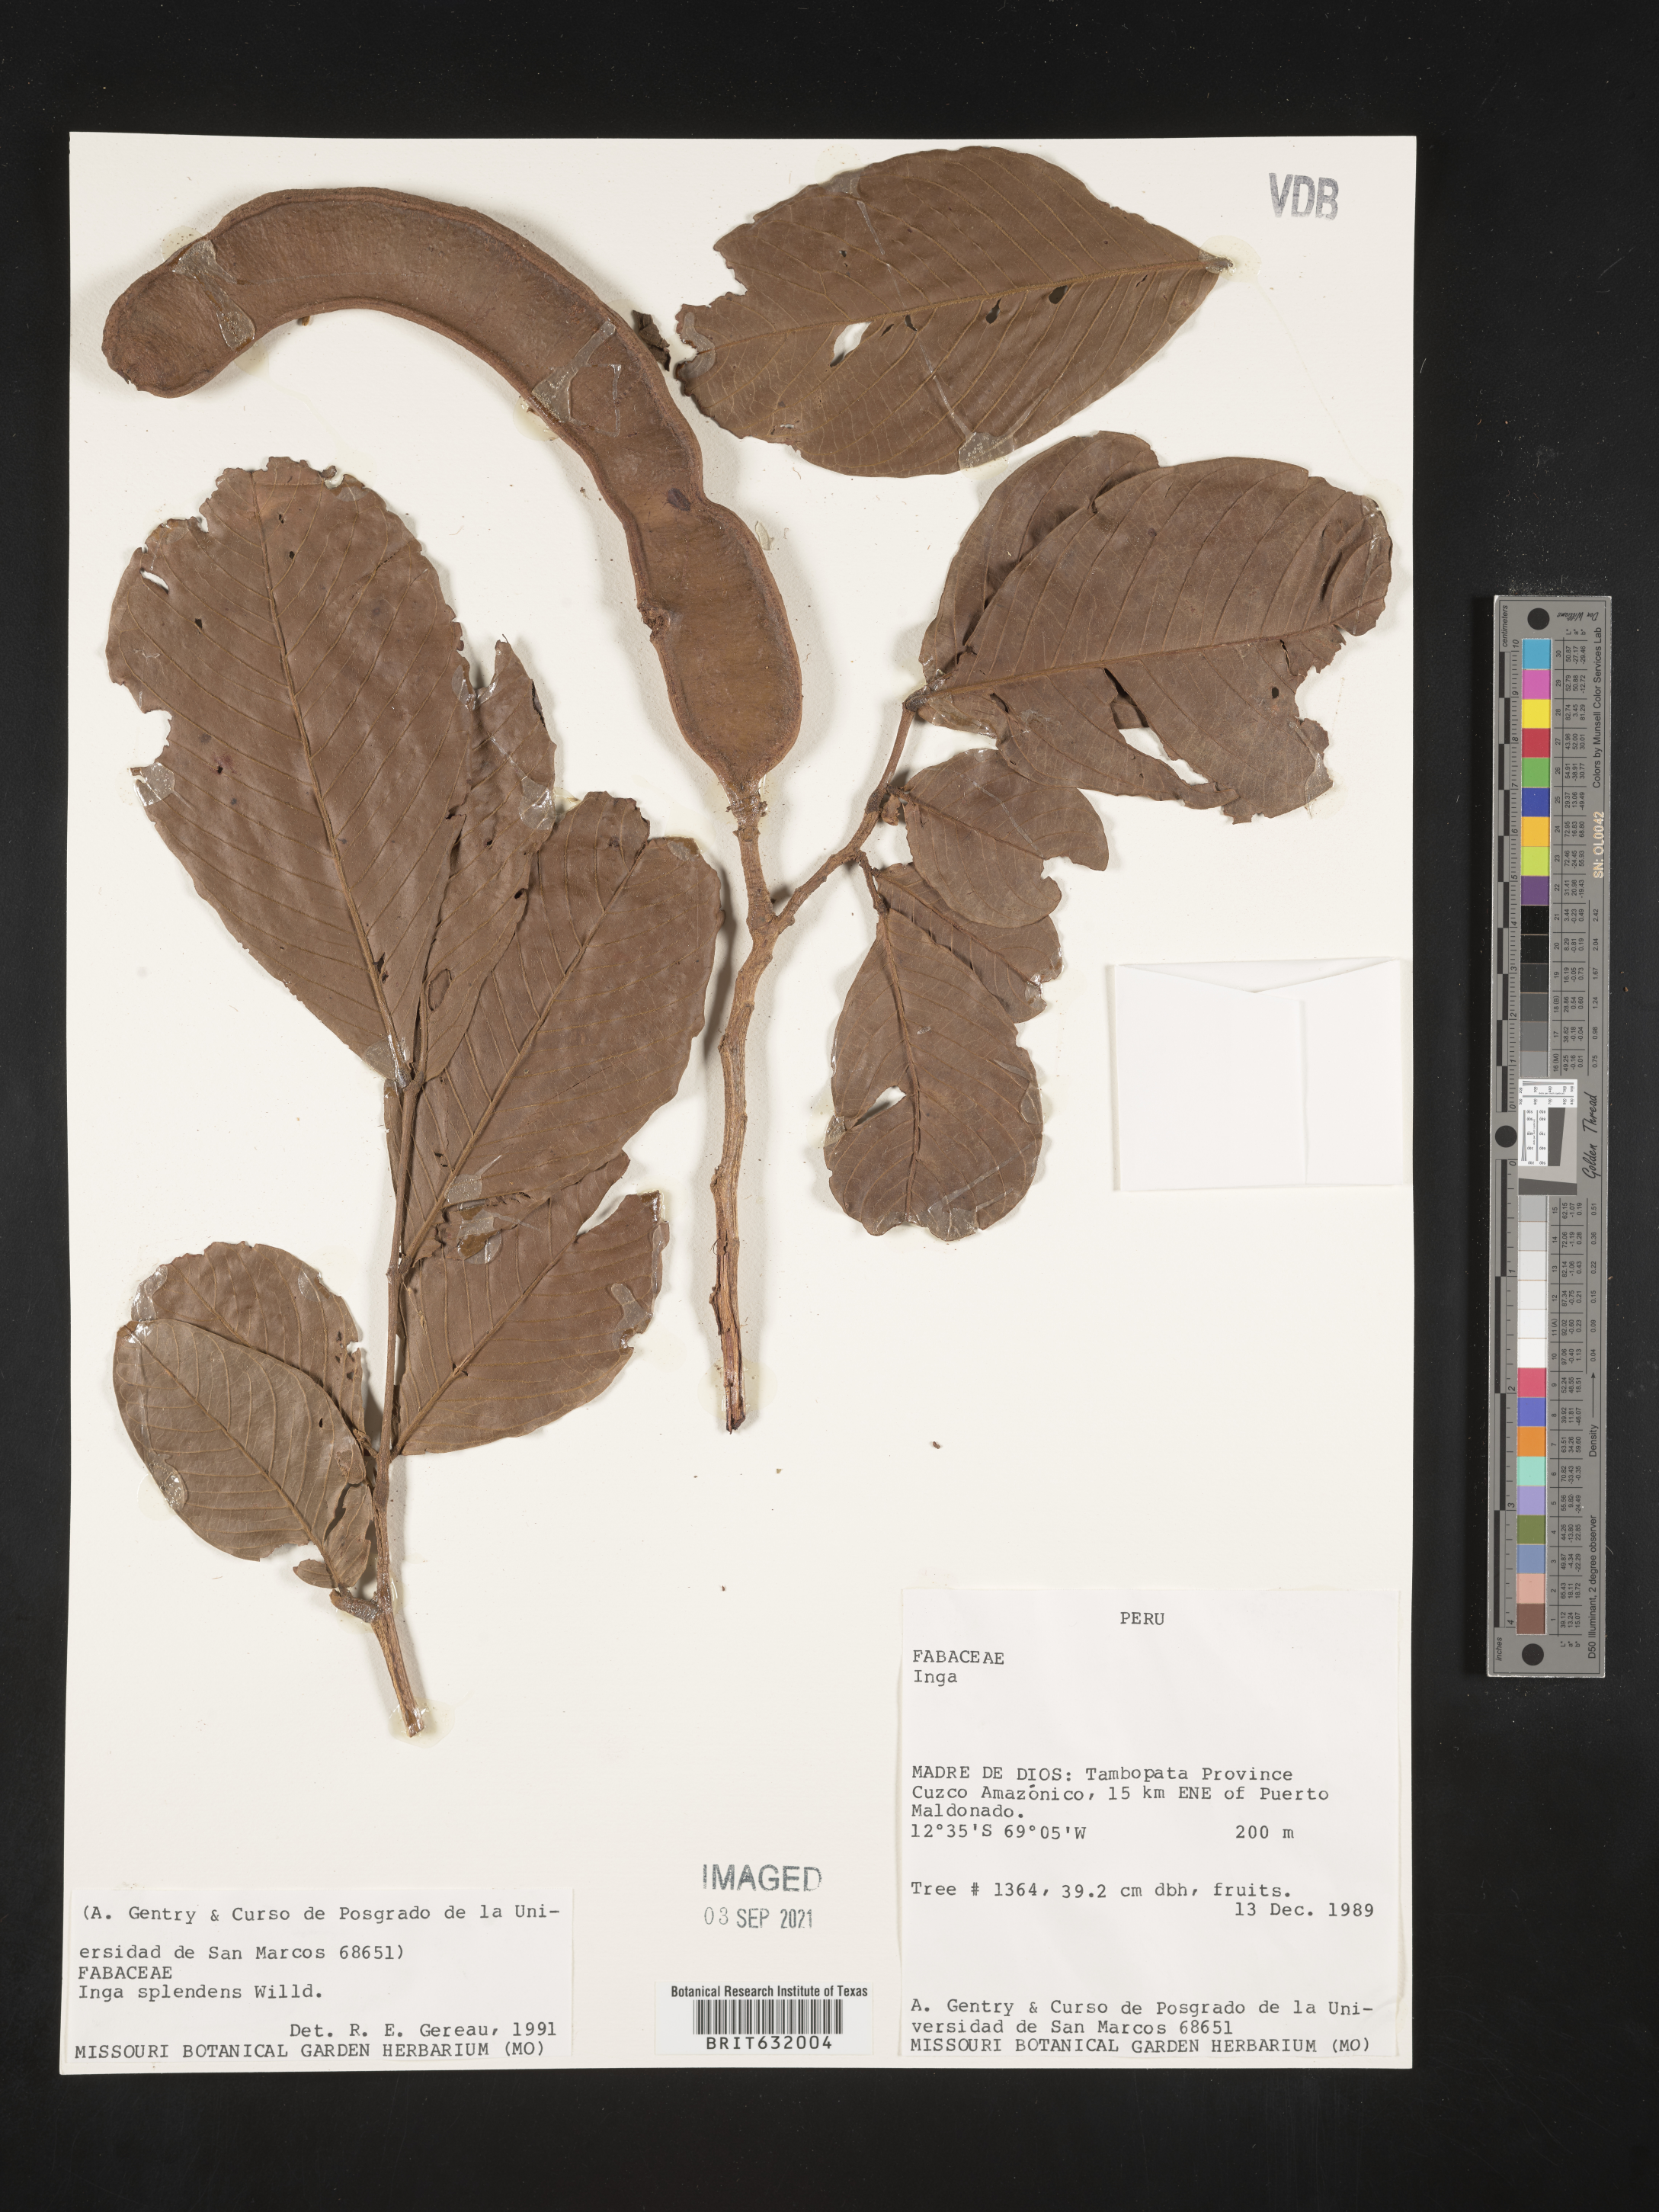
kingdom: Plantae
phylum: Tracheophyta
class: Magnoliopsida
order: Fabales
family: Fabaceae
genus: Inga
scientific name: Inga
